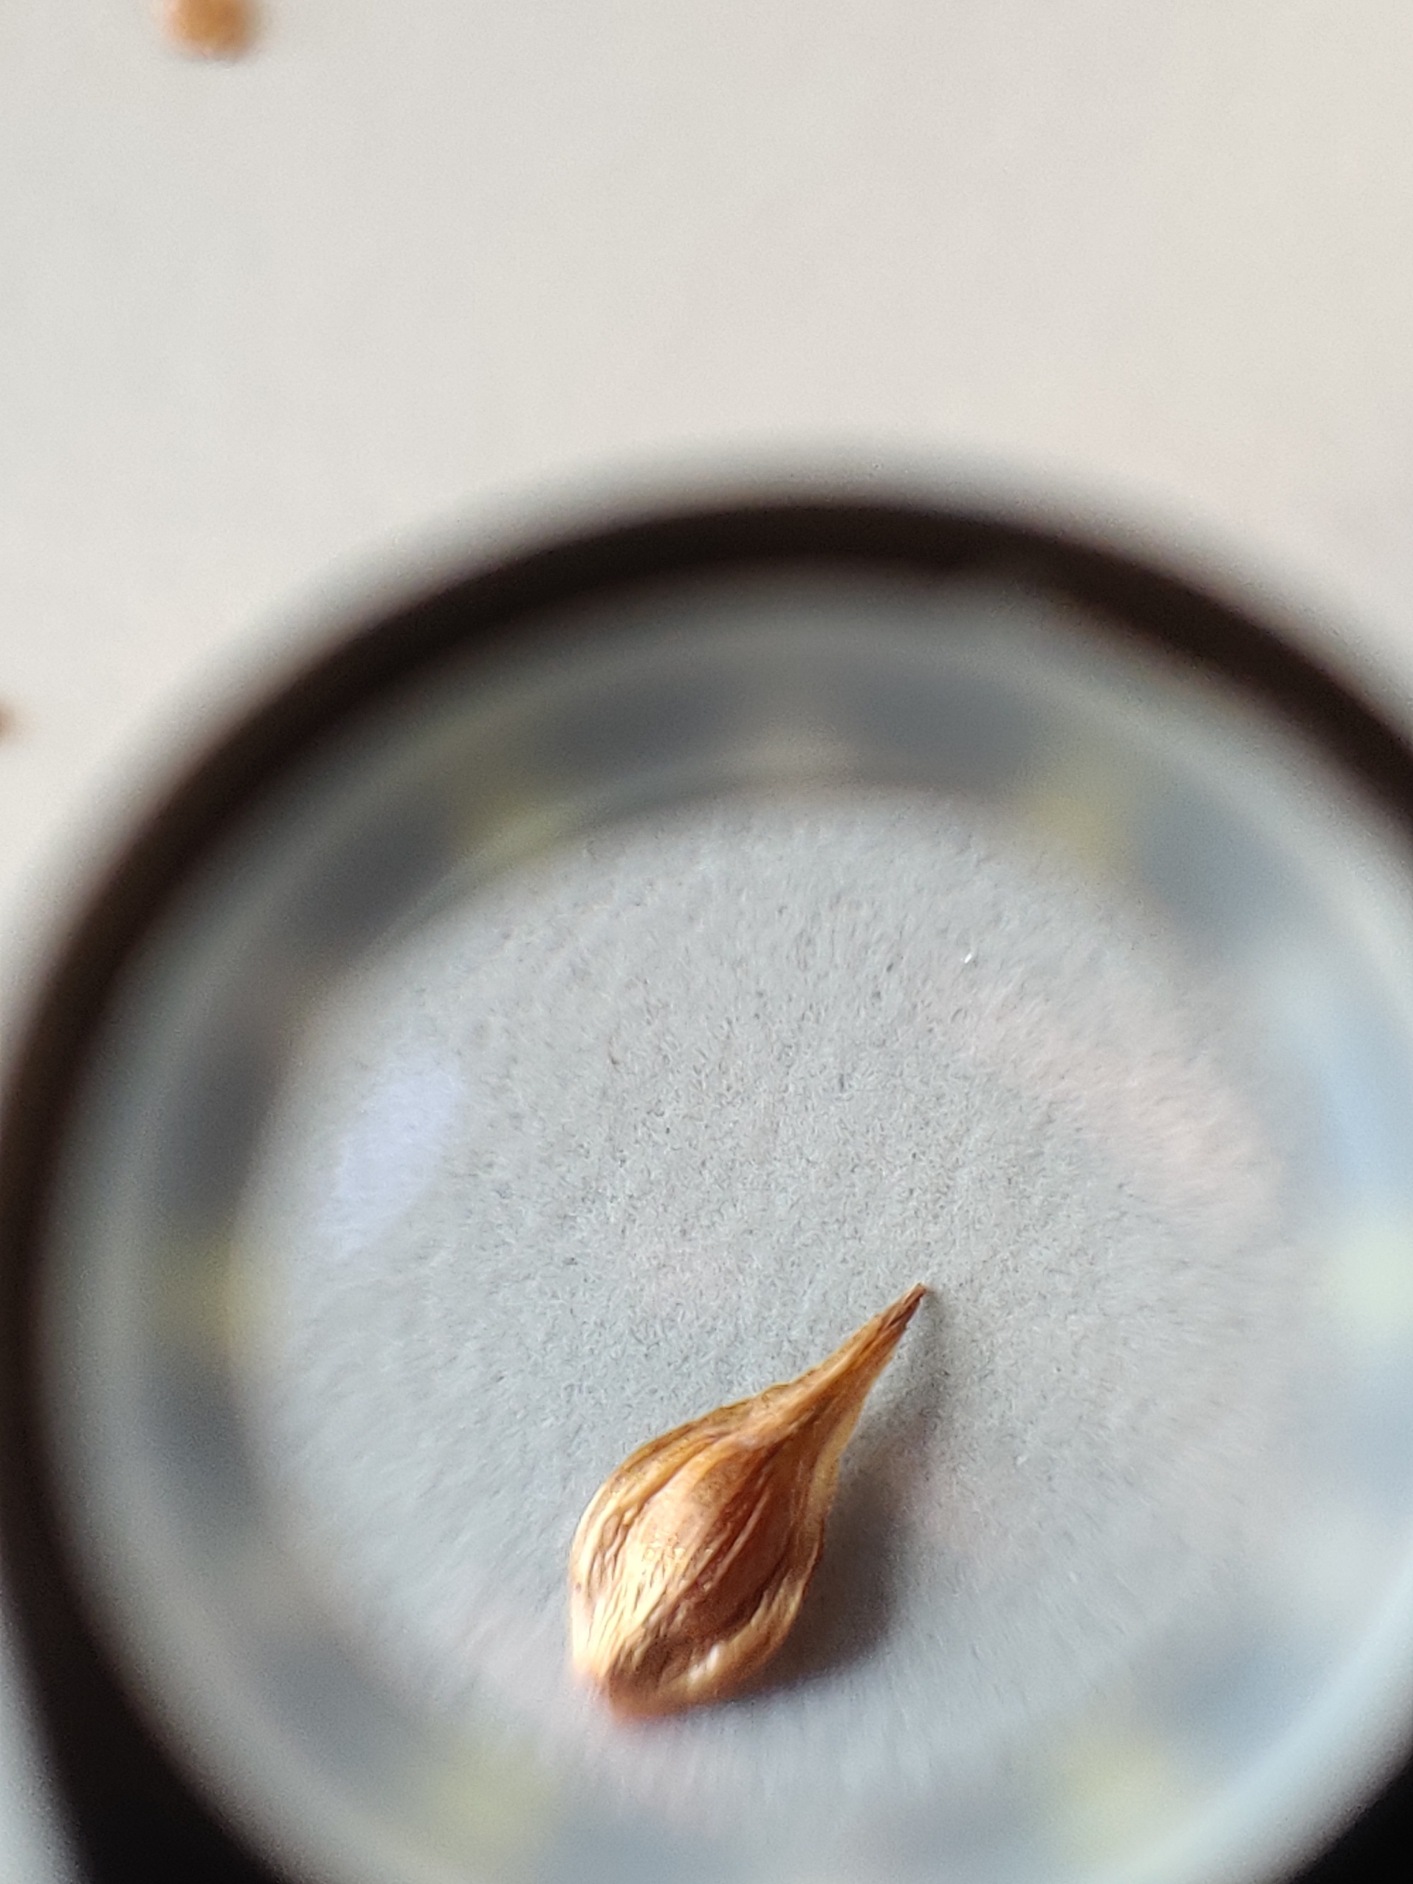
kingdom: Plantae
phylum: Tracheophyta
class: Liliopsida
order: Poales
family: Cyperaceae
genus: Carex
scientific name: Carex leporina
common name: Hare-star
